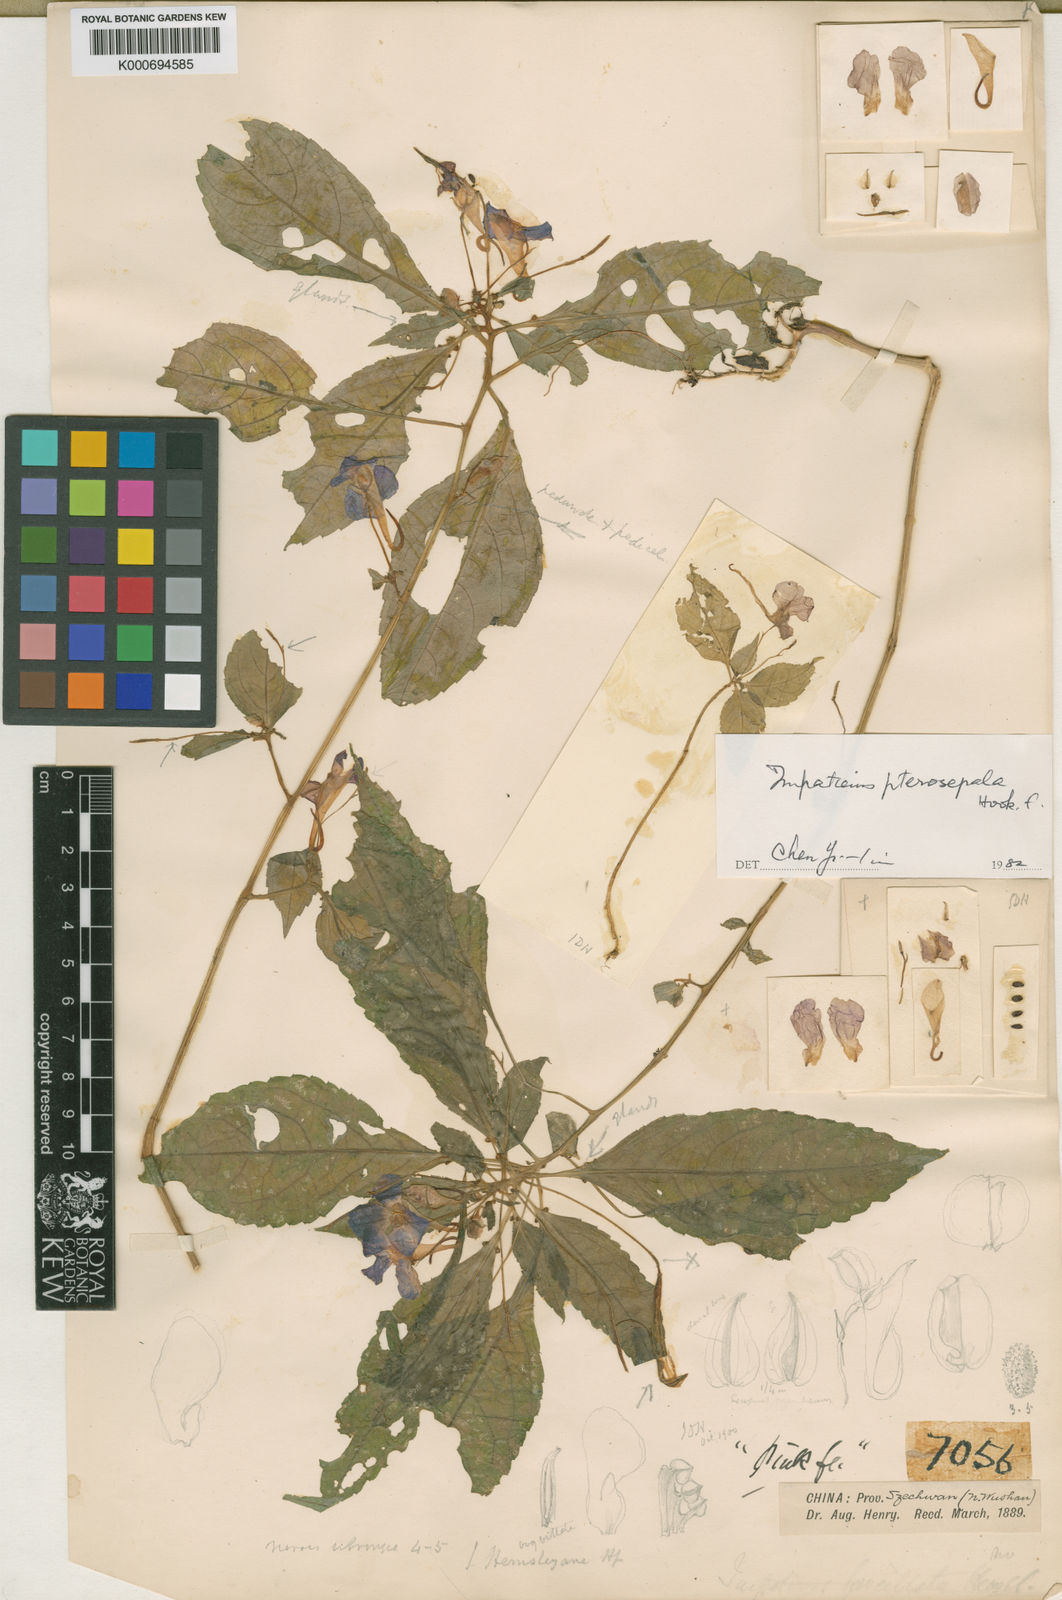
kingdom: Plantae
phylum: Tracheophyta
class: Magnoliopsida
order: Ericales
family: Balsaminaceae
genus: Impatiens
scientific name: Impatiens
